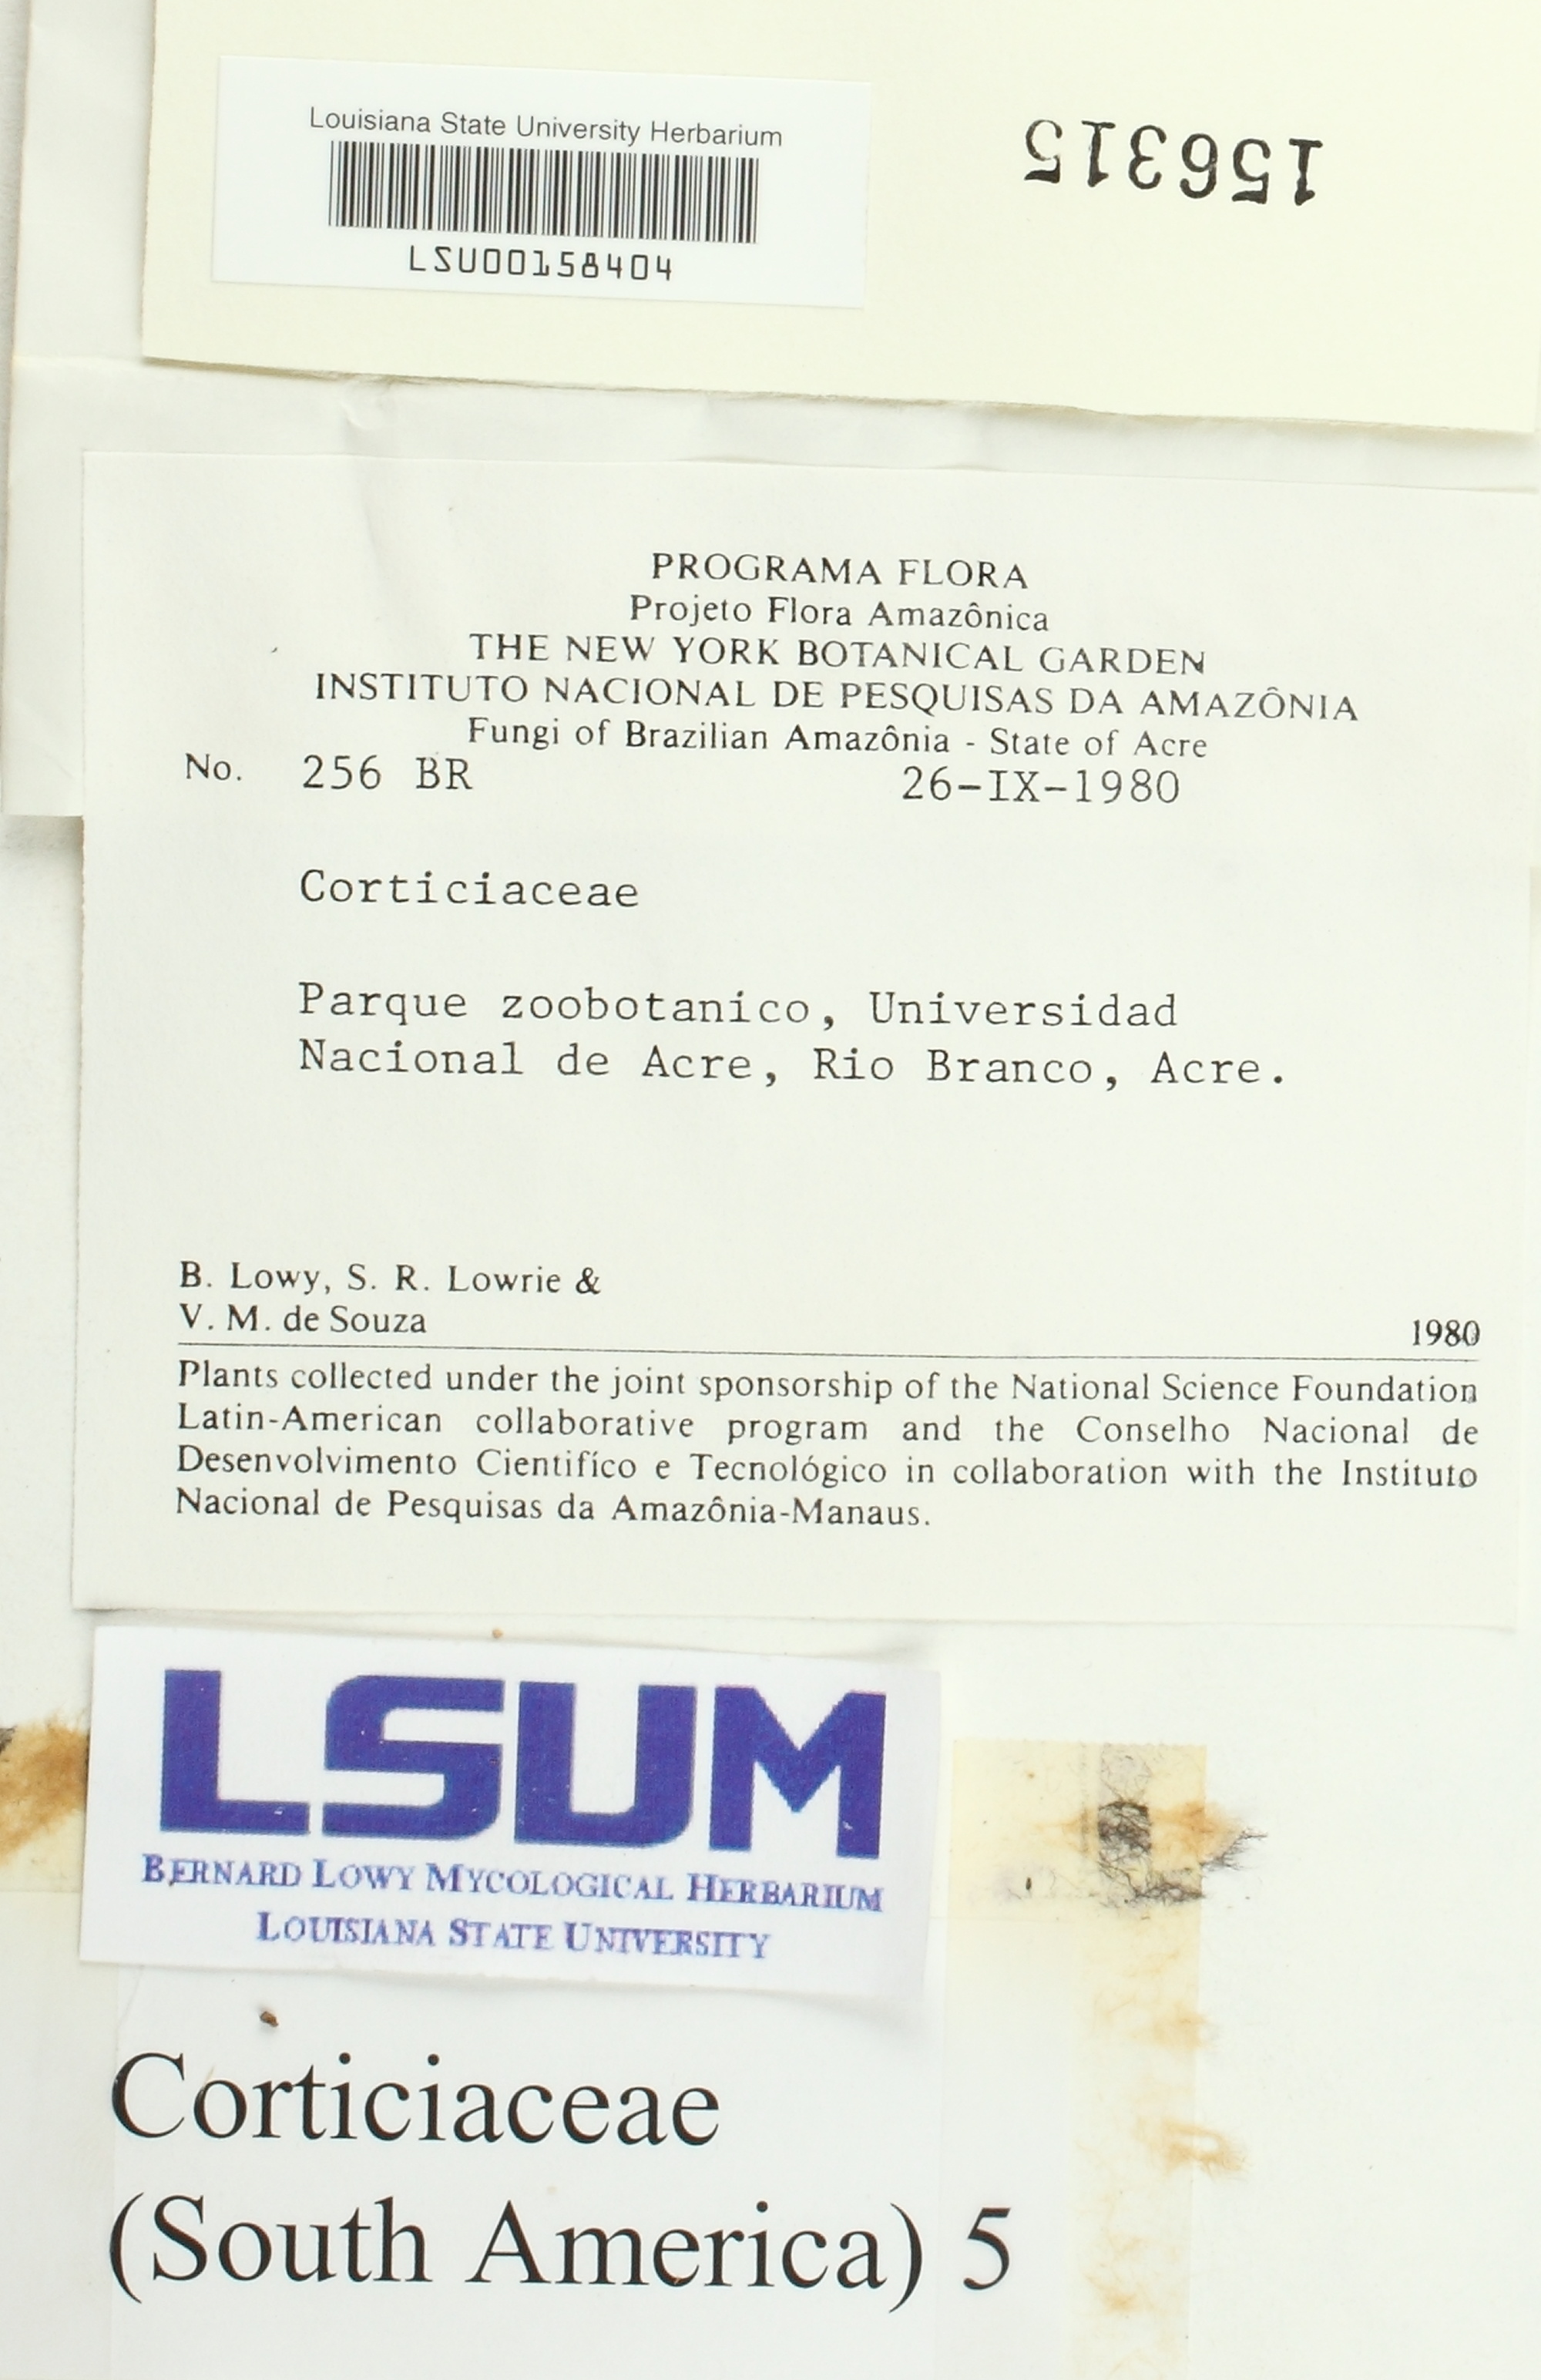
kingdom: Fungi
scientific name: Fungi
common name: Fungi
